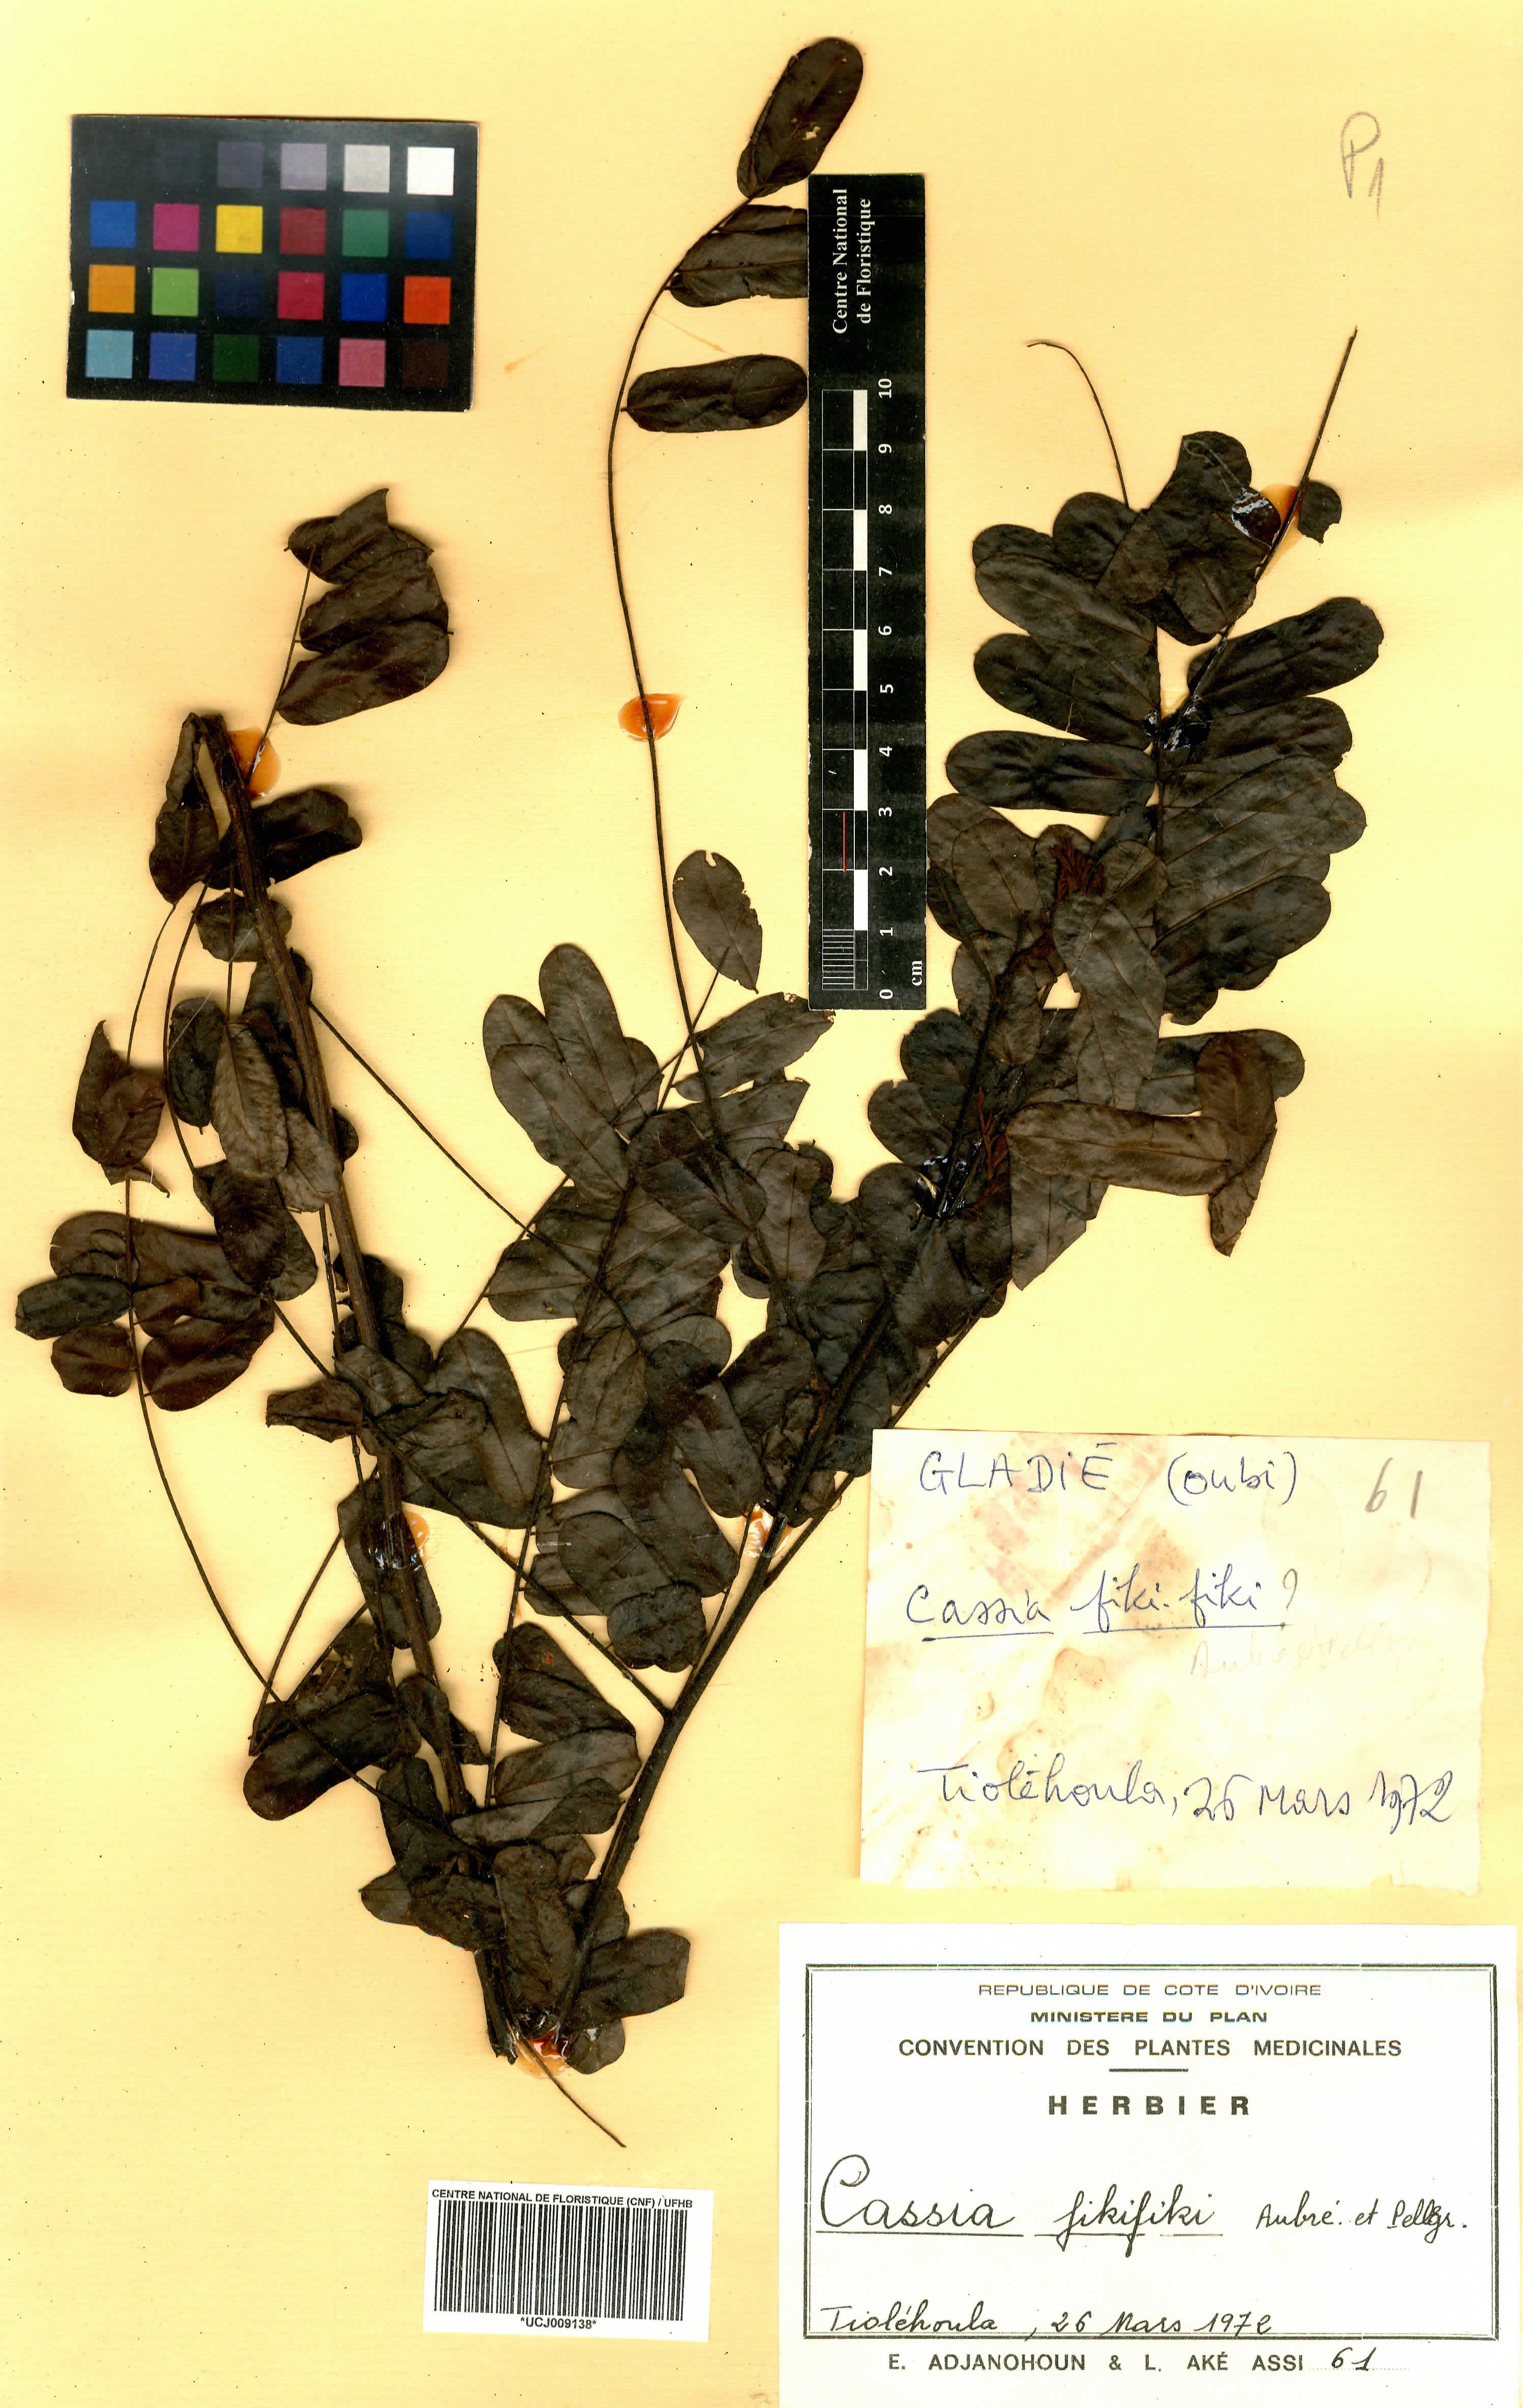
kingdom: Plantae
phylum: Tracheophyta
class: Magnoliopsida
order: Fabales
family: Fabaceae
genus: Cassia
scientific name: Cassia fikifiki
